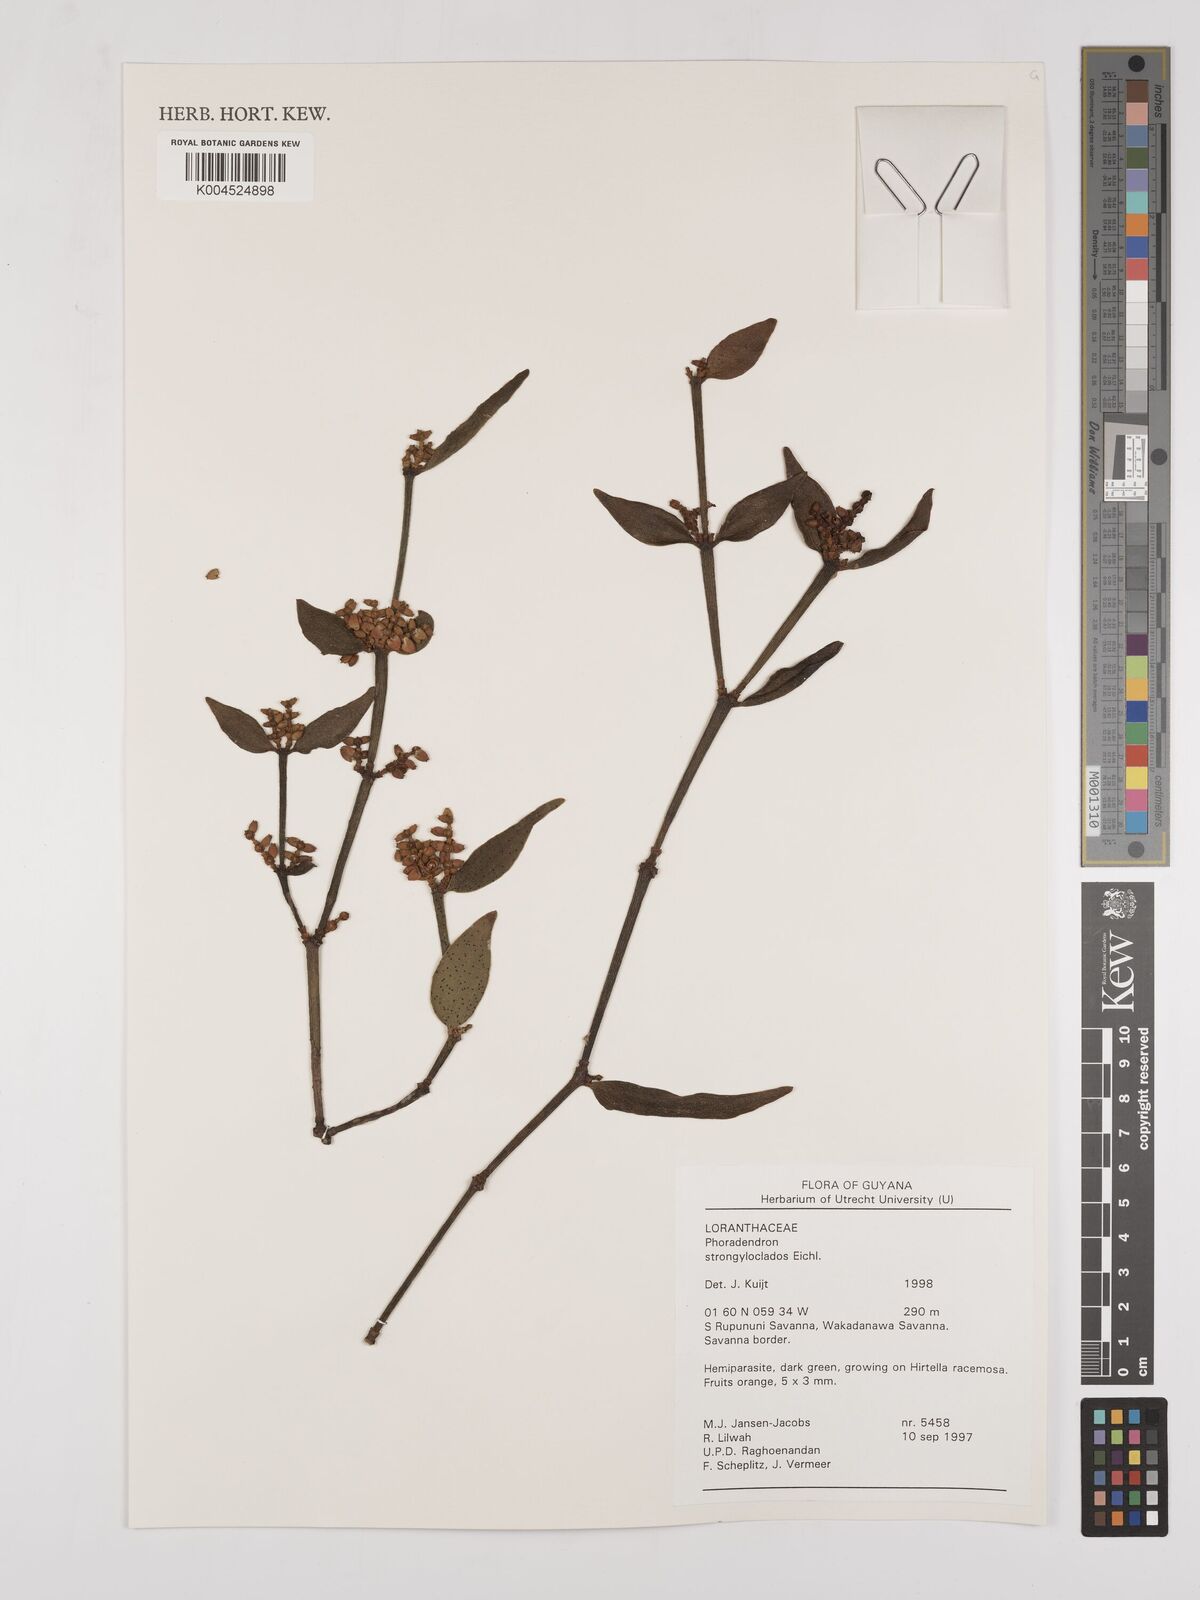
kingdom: Plantae
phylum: Tracheophyta
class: Magnoliopsida
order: Santalales
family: Viscaceae
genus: Phoradendron
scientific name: Phoradendron strongyloclados
